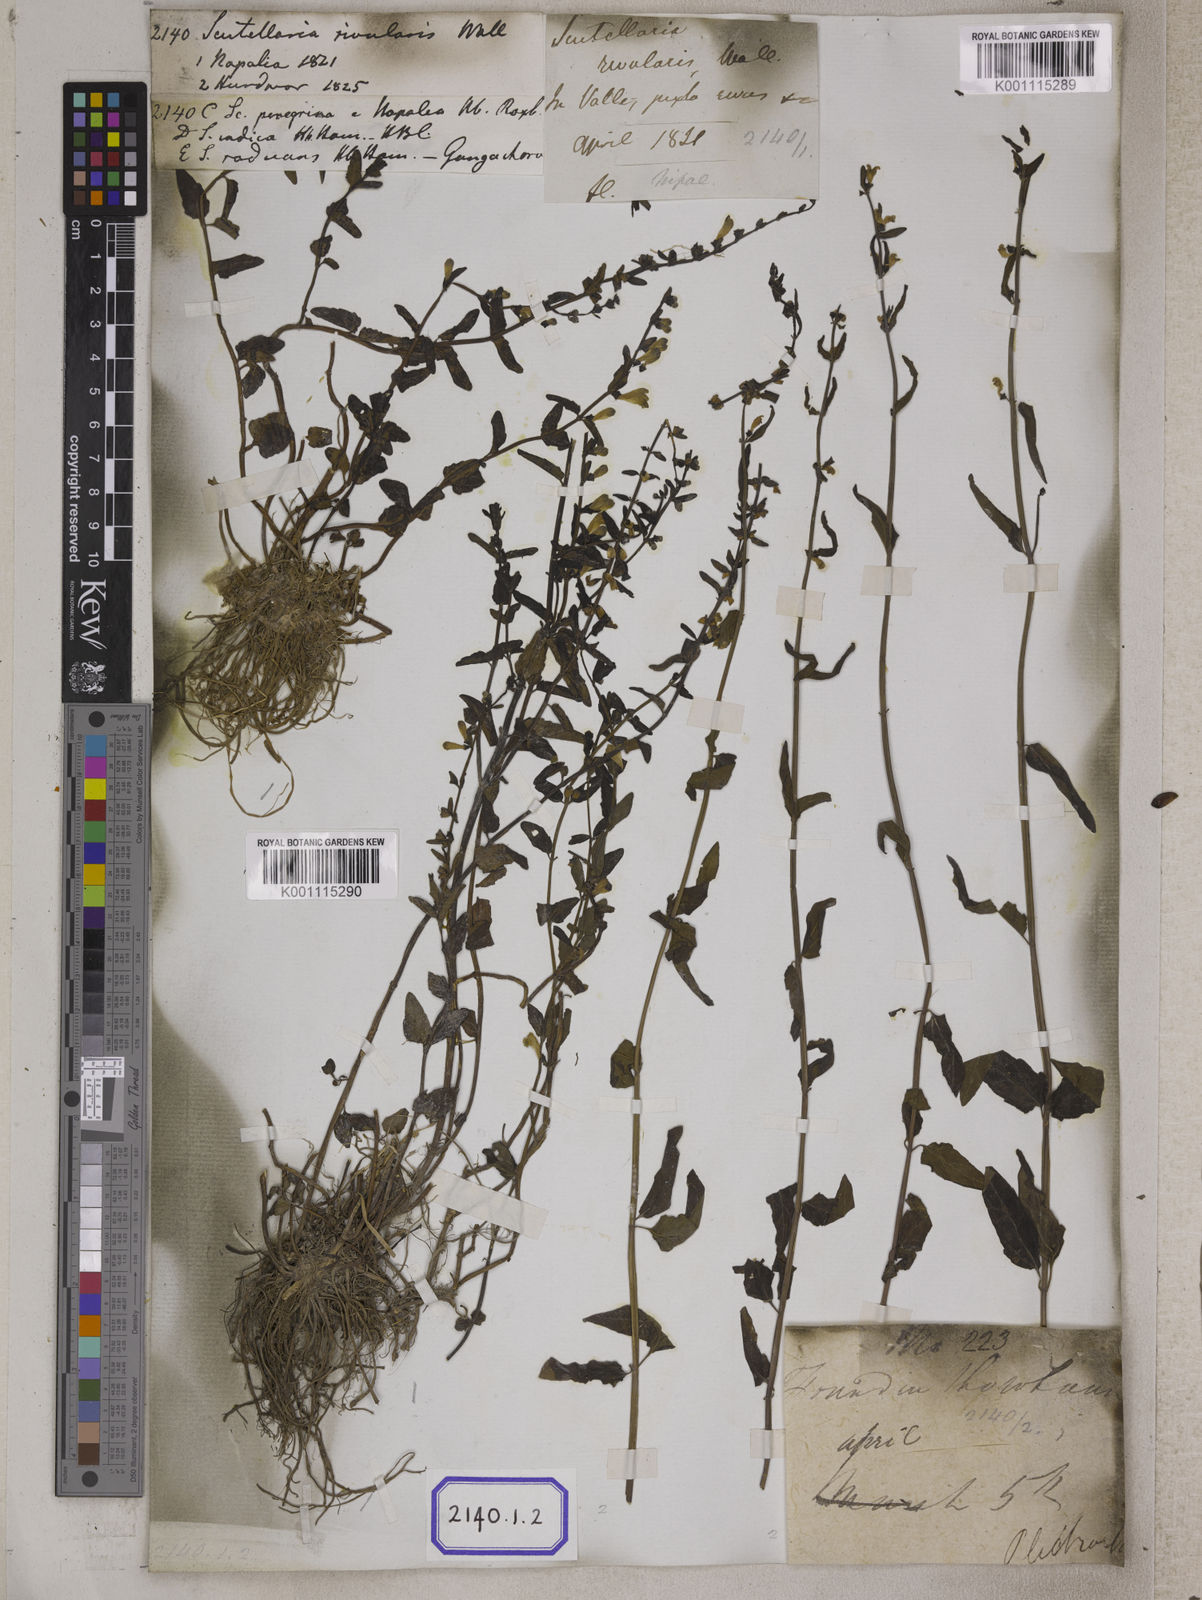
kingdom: Plantae
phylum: Tracheophyta
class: Magnoliopsida
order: Lamiales
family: Lamiaceae
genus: Scutellaria
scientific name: Scutellaria
